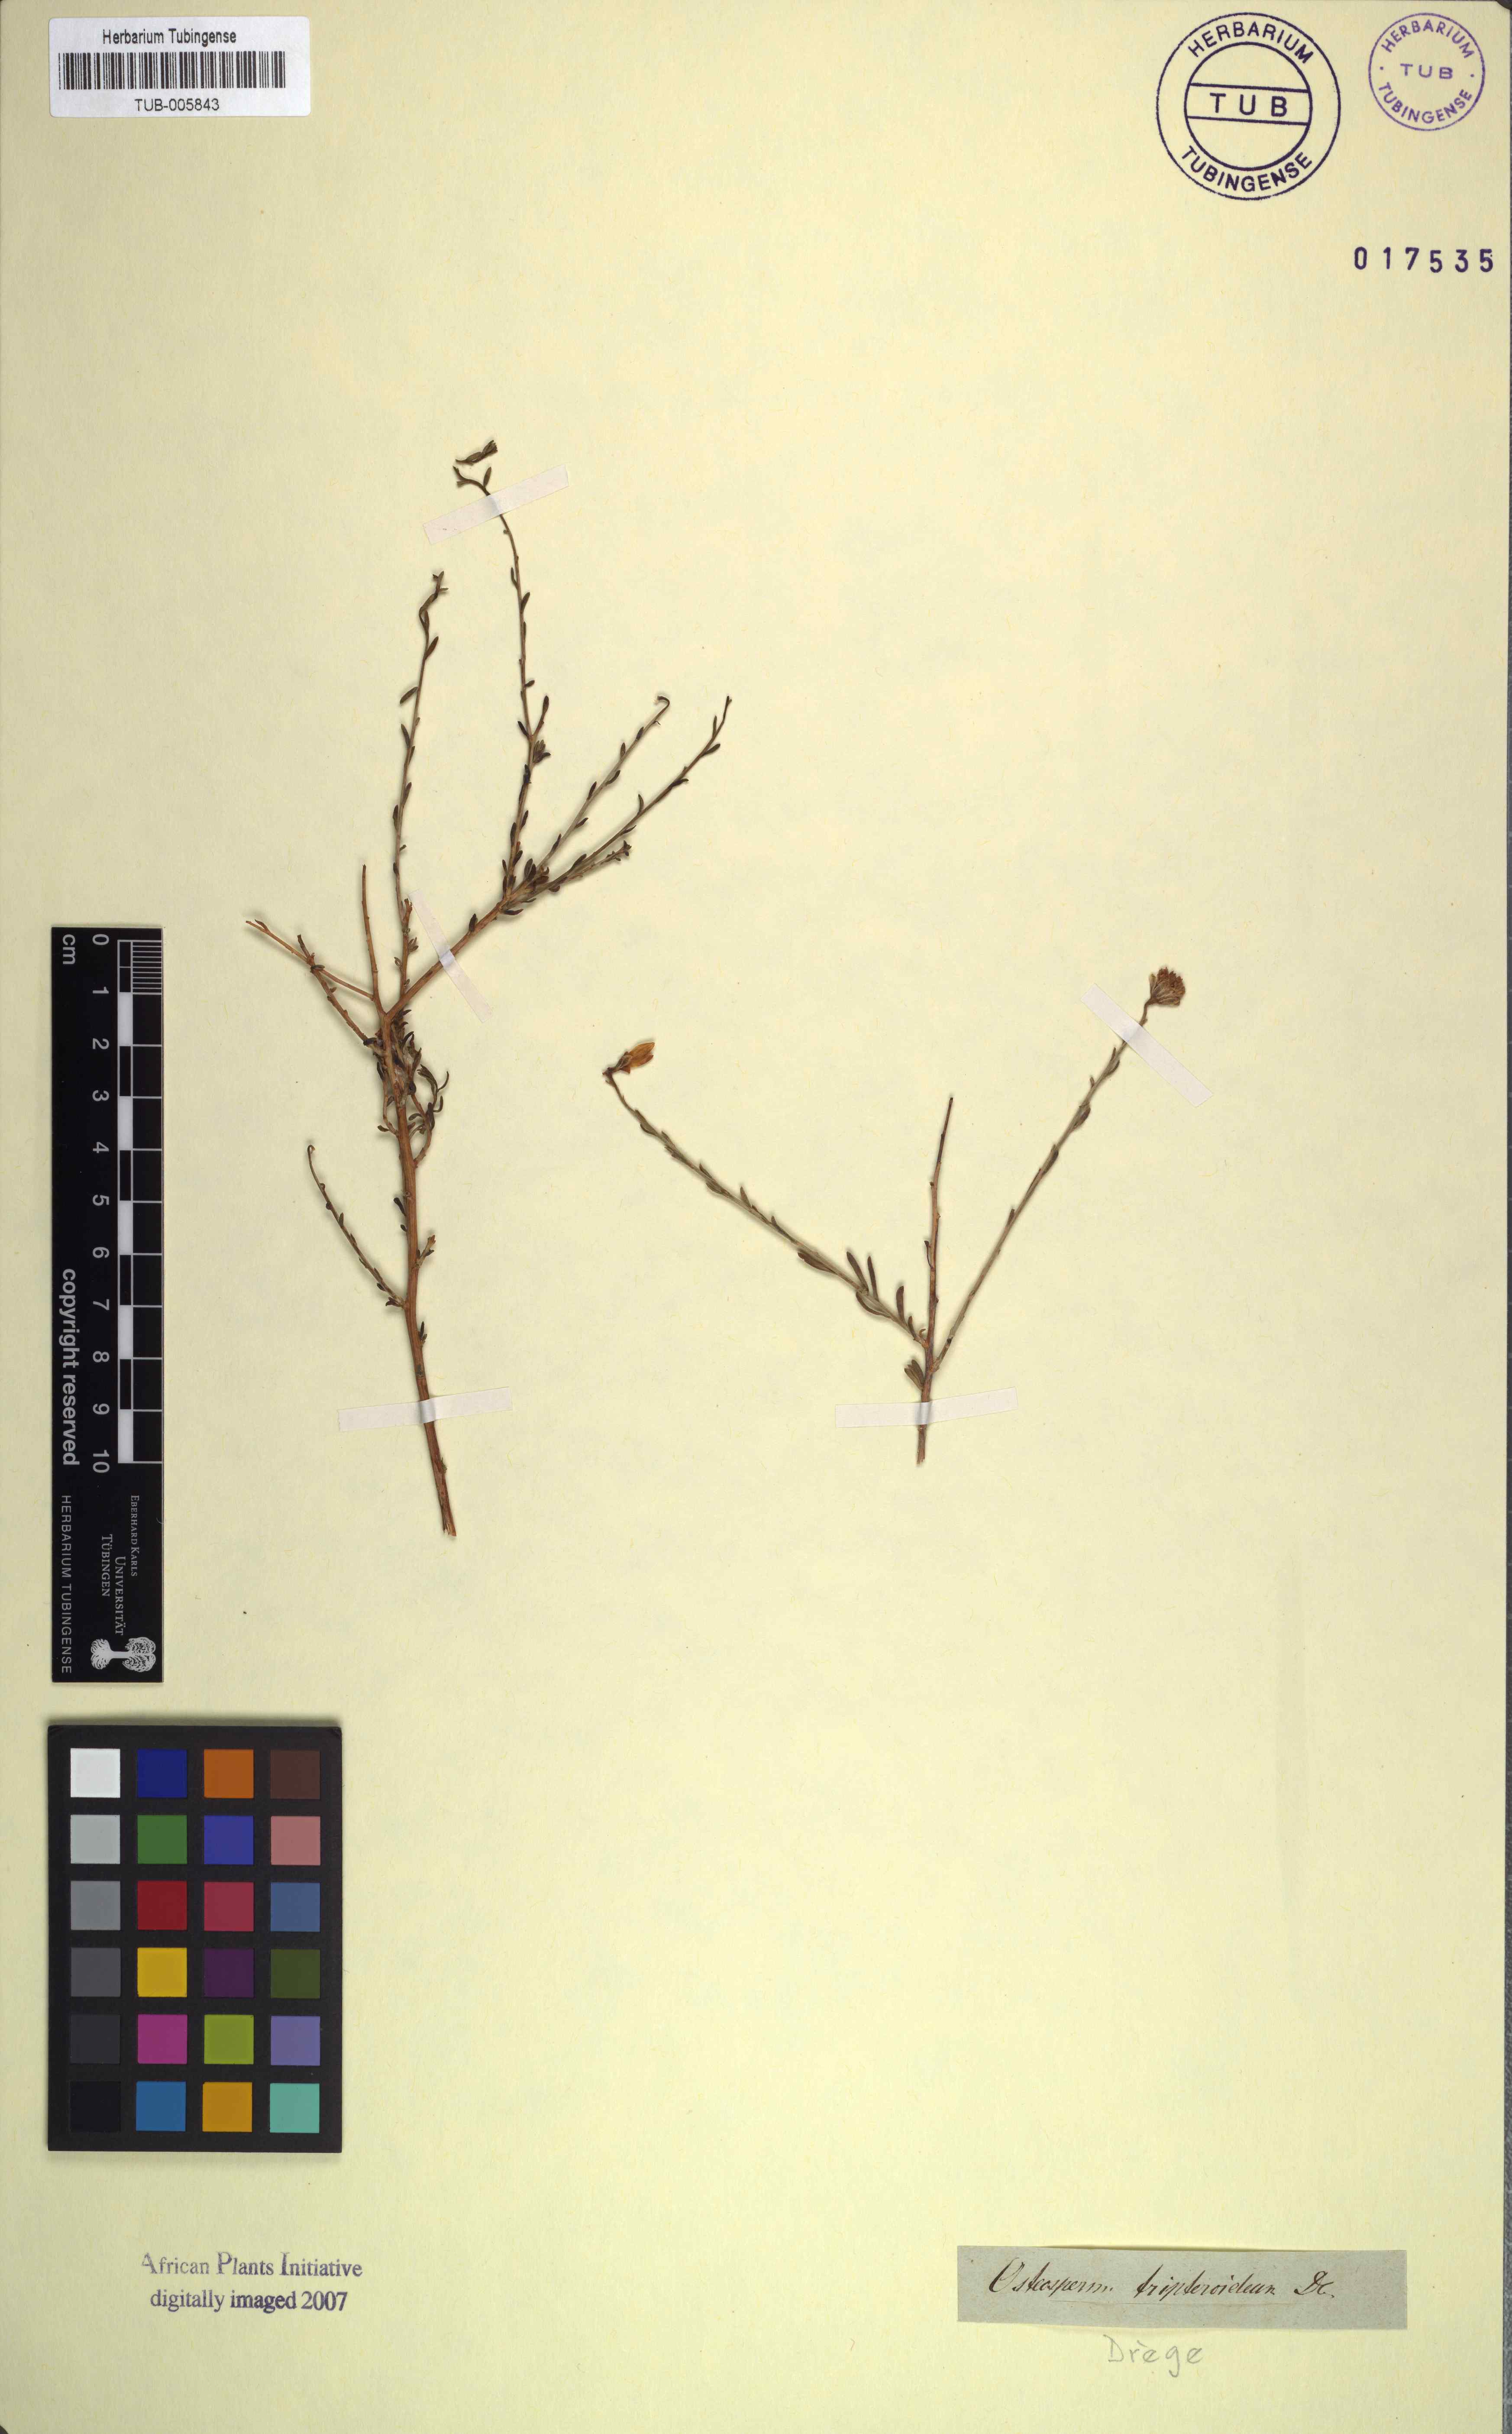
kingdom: Plantae
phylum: Tracheophyta
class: Magnoliopsida
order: Asterales
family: Asteraceae
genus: Osteospermum
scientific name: Osteospermum spinescens
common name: Sunflower
